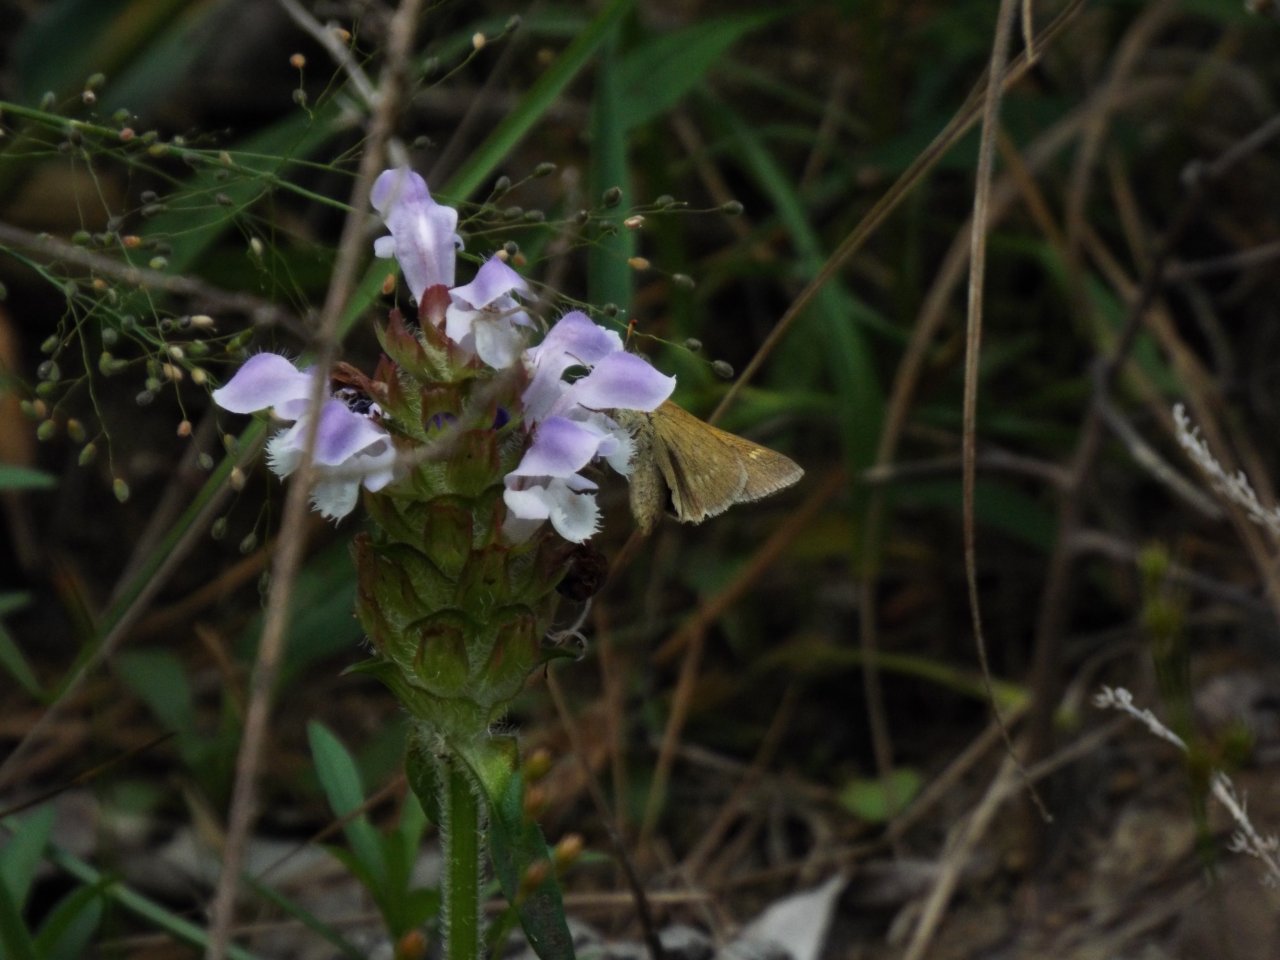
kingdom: Animalia
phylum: Arthropoda
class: Insecta
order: Lepidoptera
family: Hesperiidae
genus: Polites
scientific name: Polites
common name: Crossline Skipper
